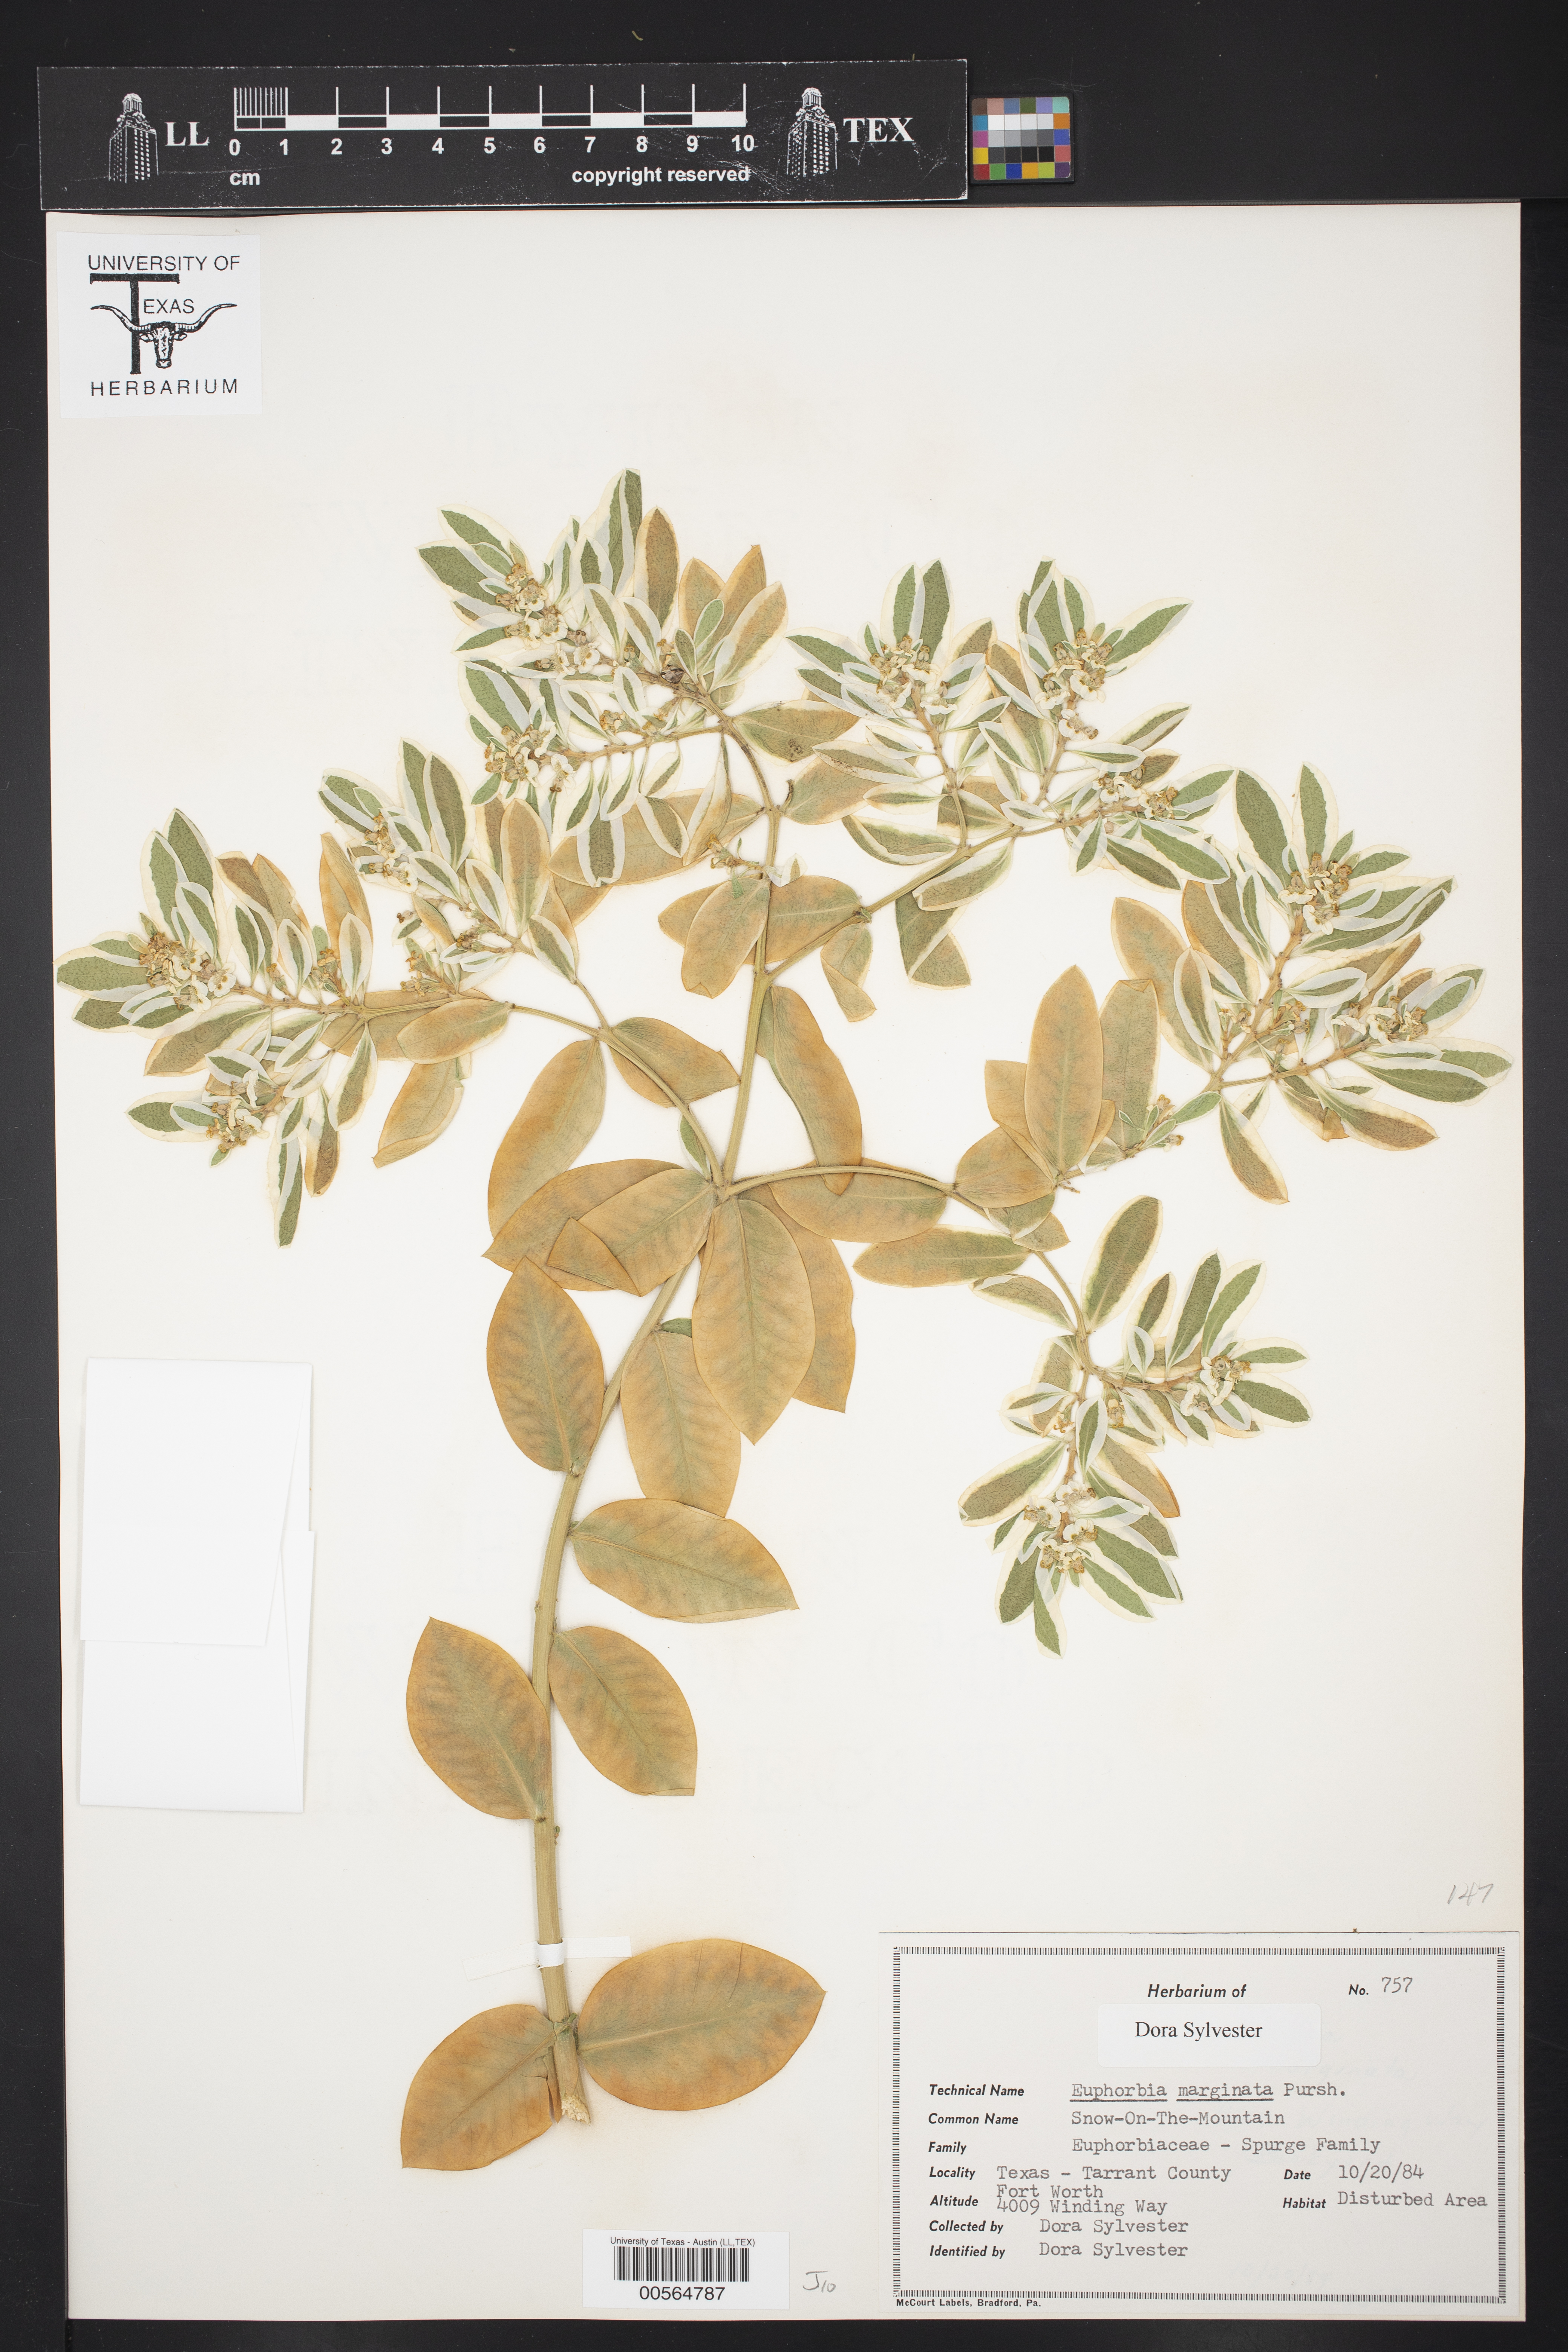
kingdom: Plantae
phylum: Tracheophyta
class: Magnoliopsida
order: Malpighiales
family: Euphorbiaceae
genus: Euphorbia
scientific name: Euphorbia marginata
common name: Ghostweed
